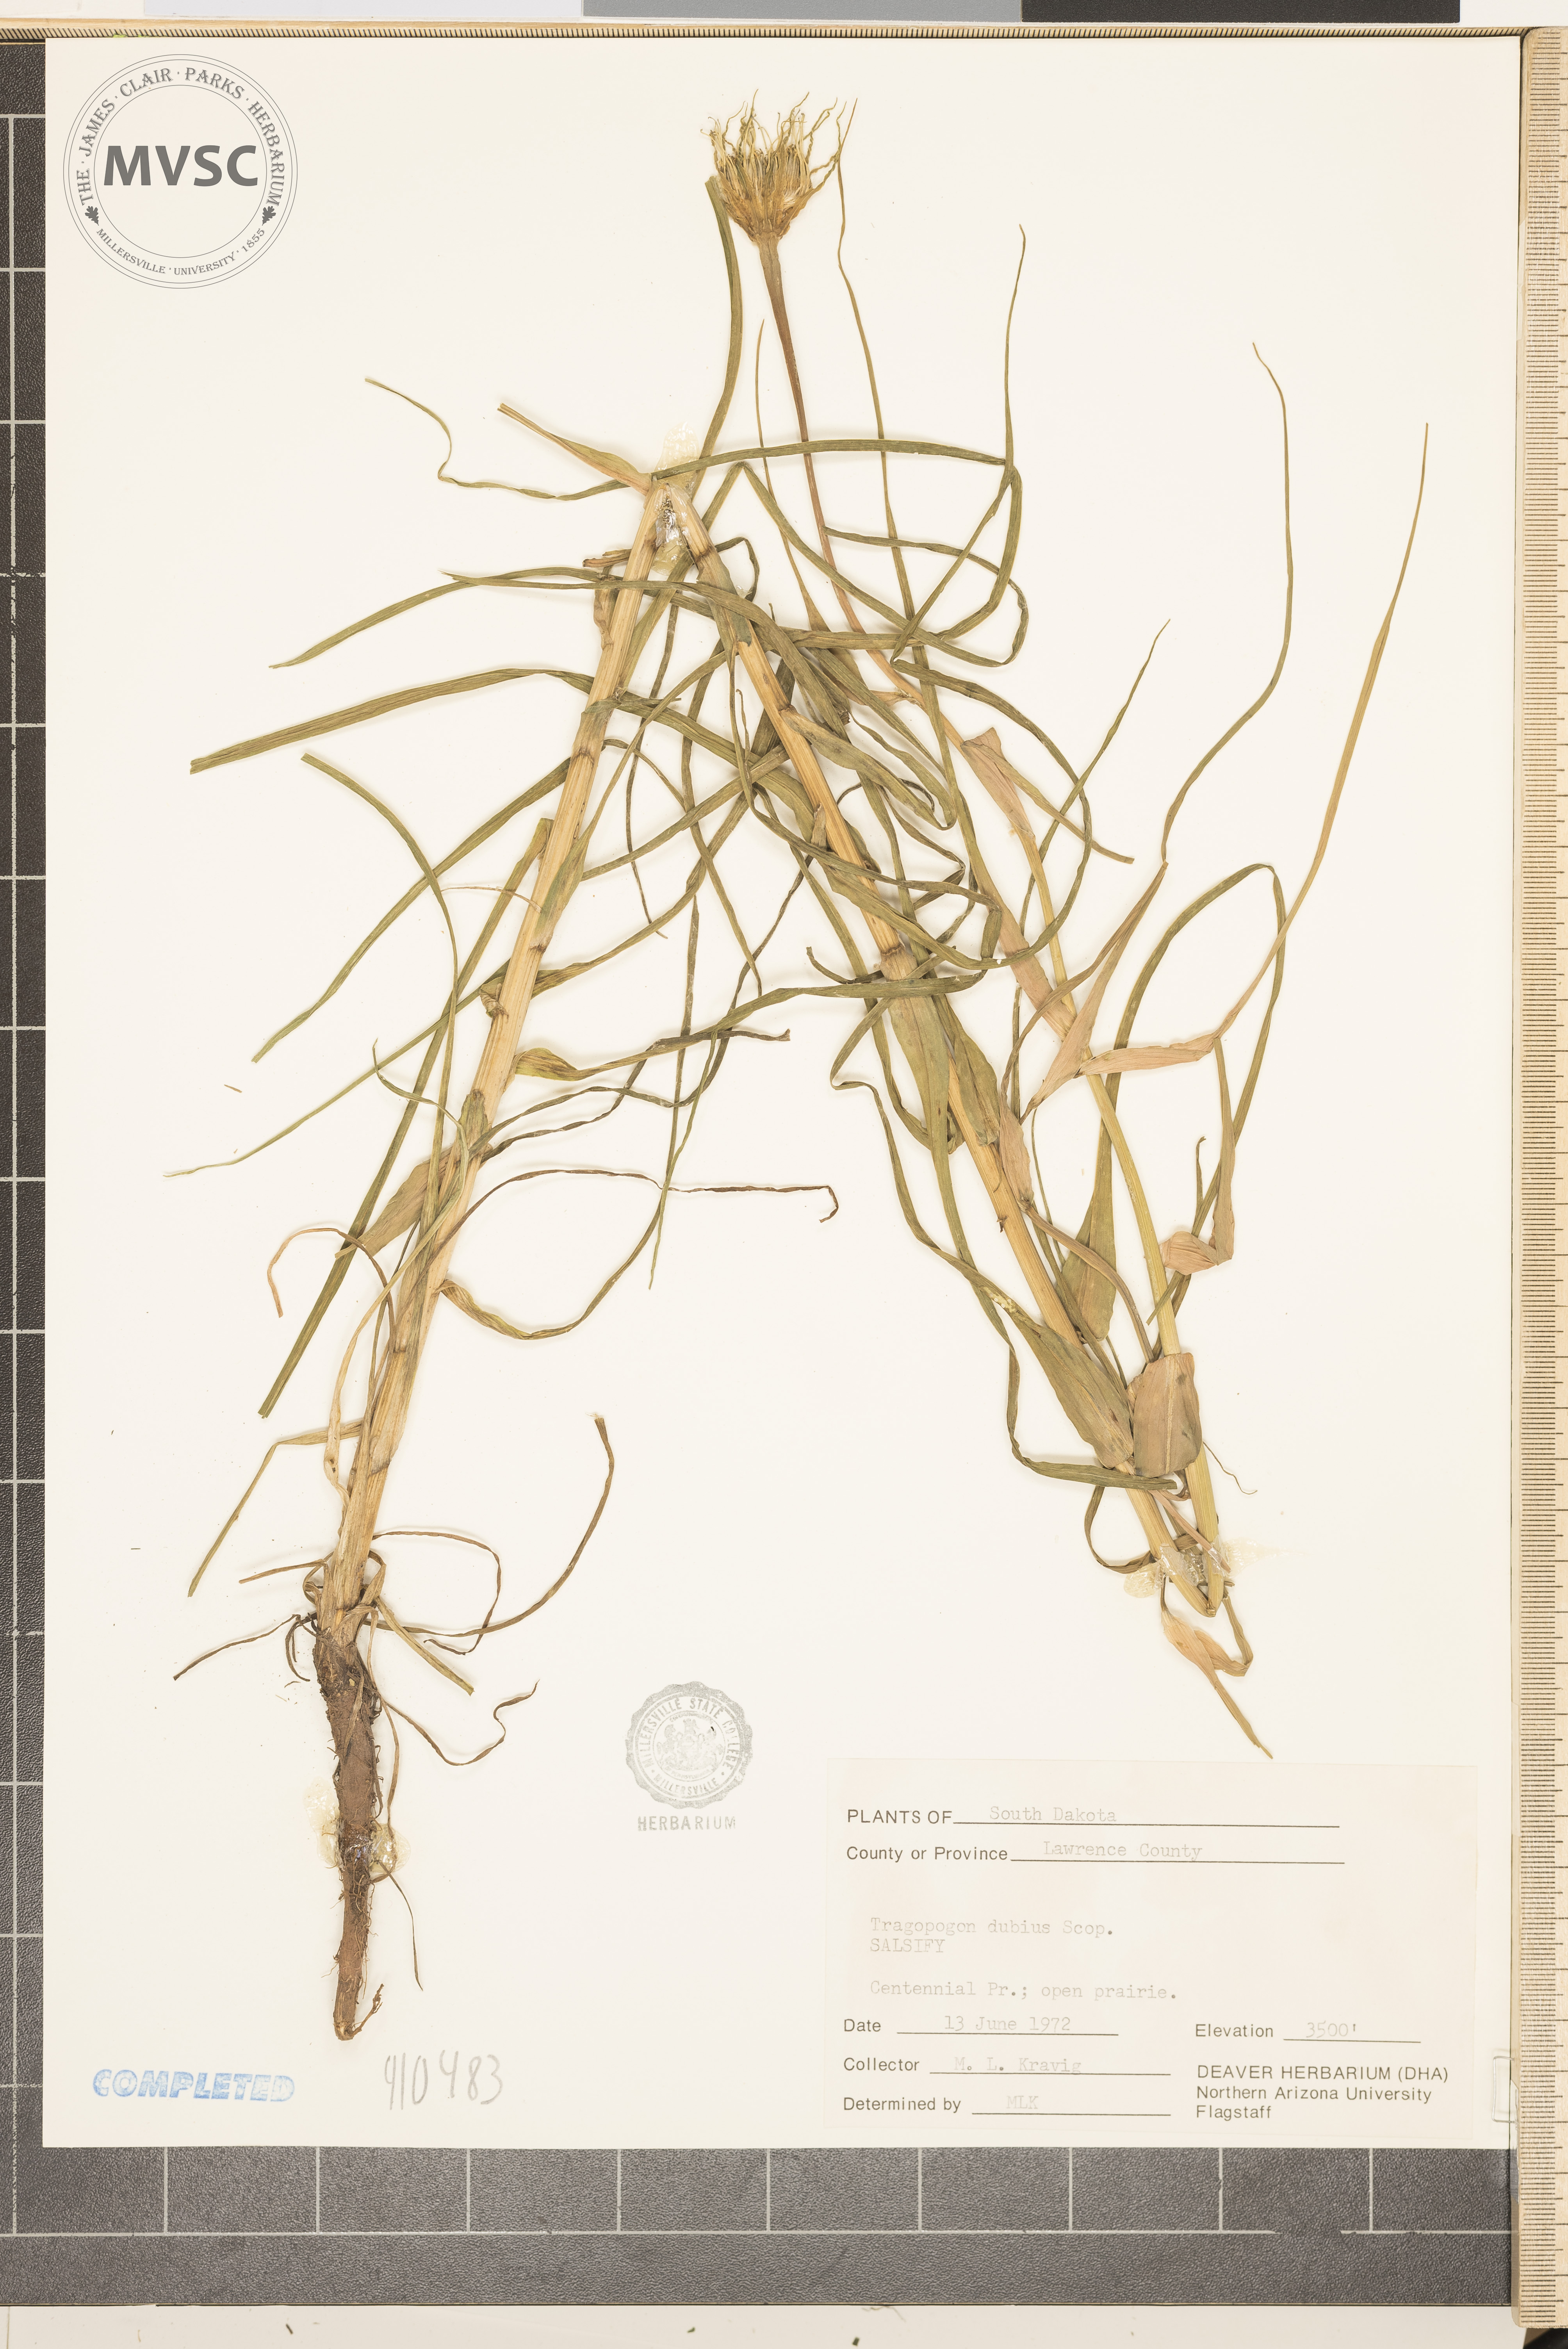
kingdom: Plantae
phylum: Tracheophyta
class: Magnoliopsida
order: Asterales
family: Asteraceae
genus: Tragopogon
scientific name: Tragopogon dubius
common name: Yellow salsify
